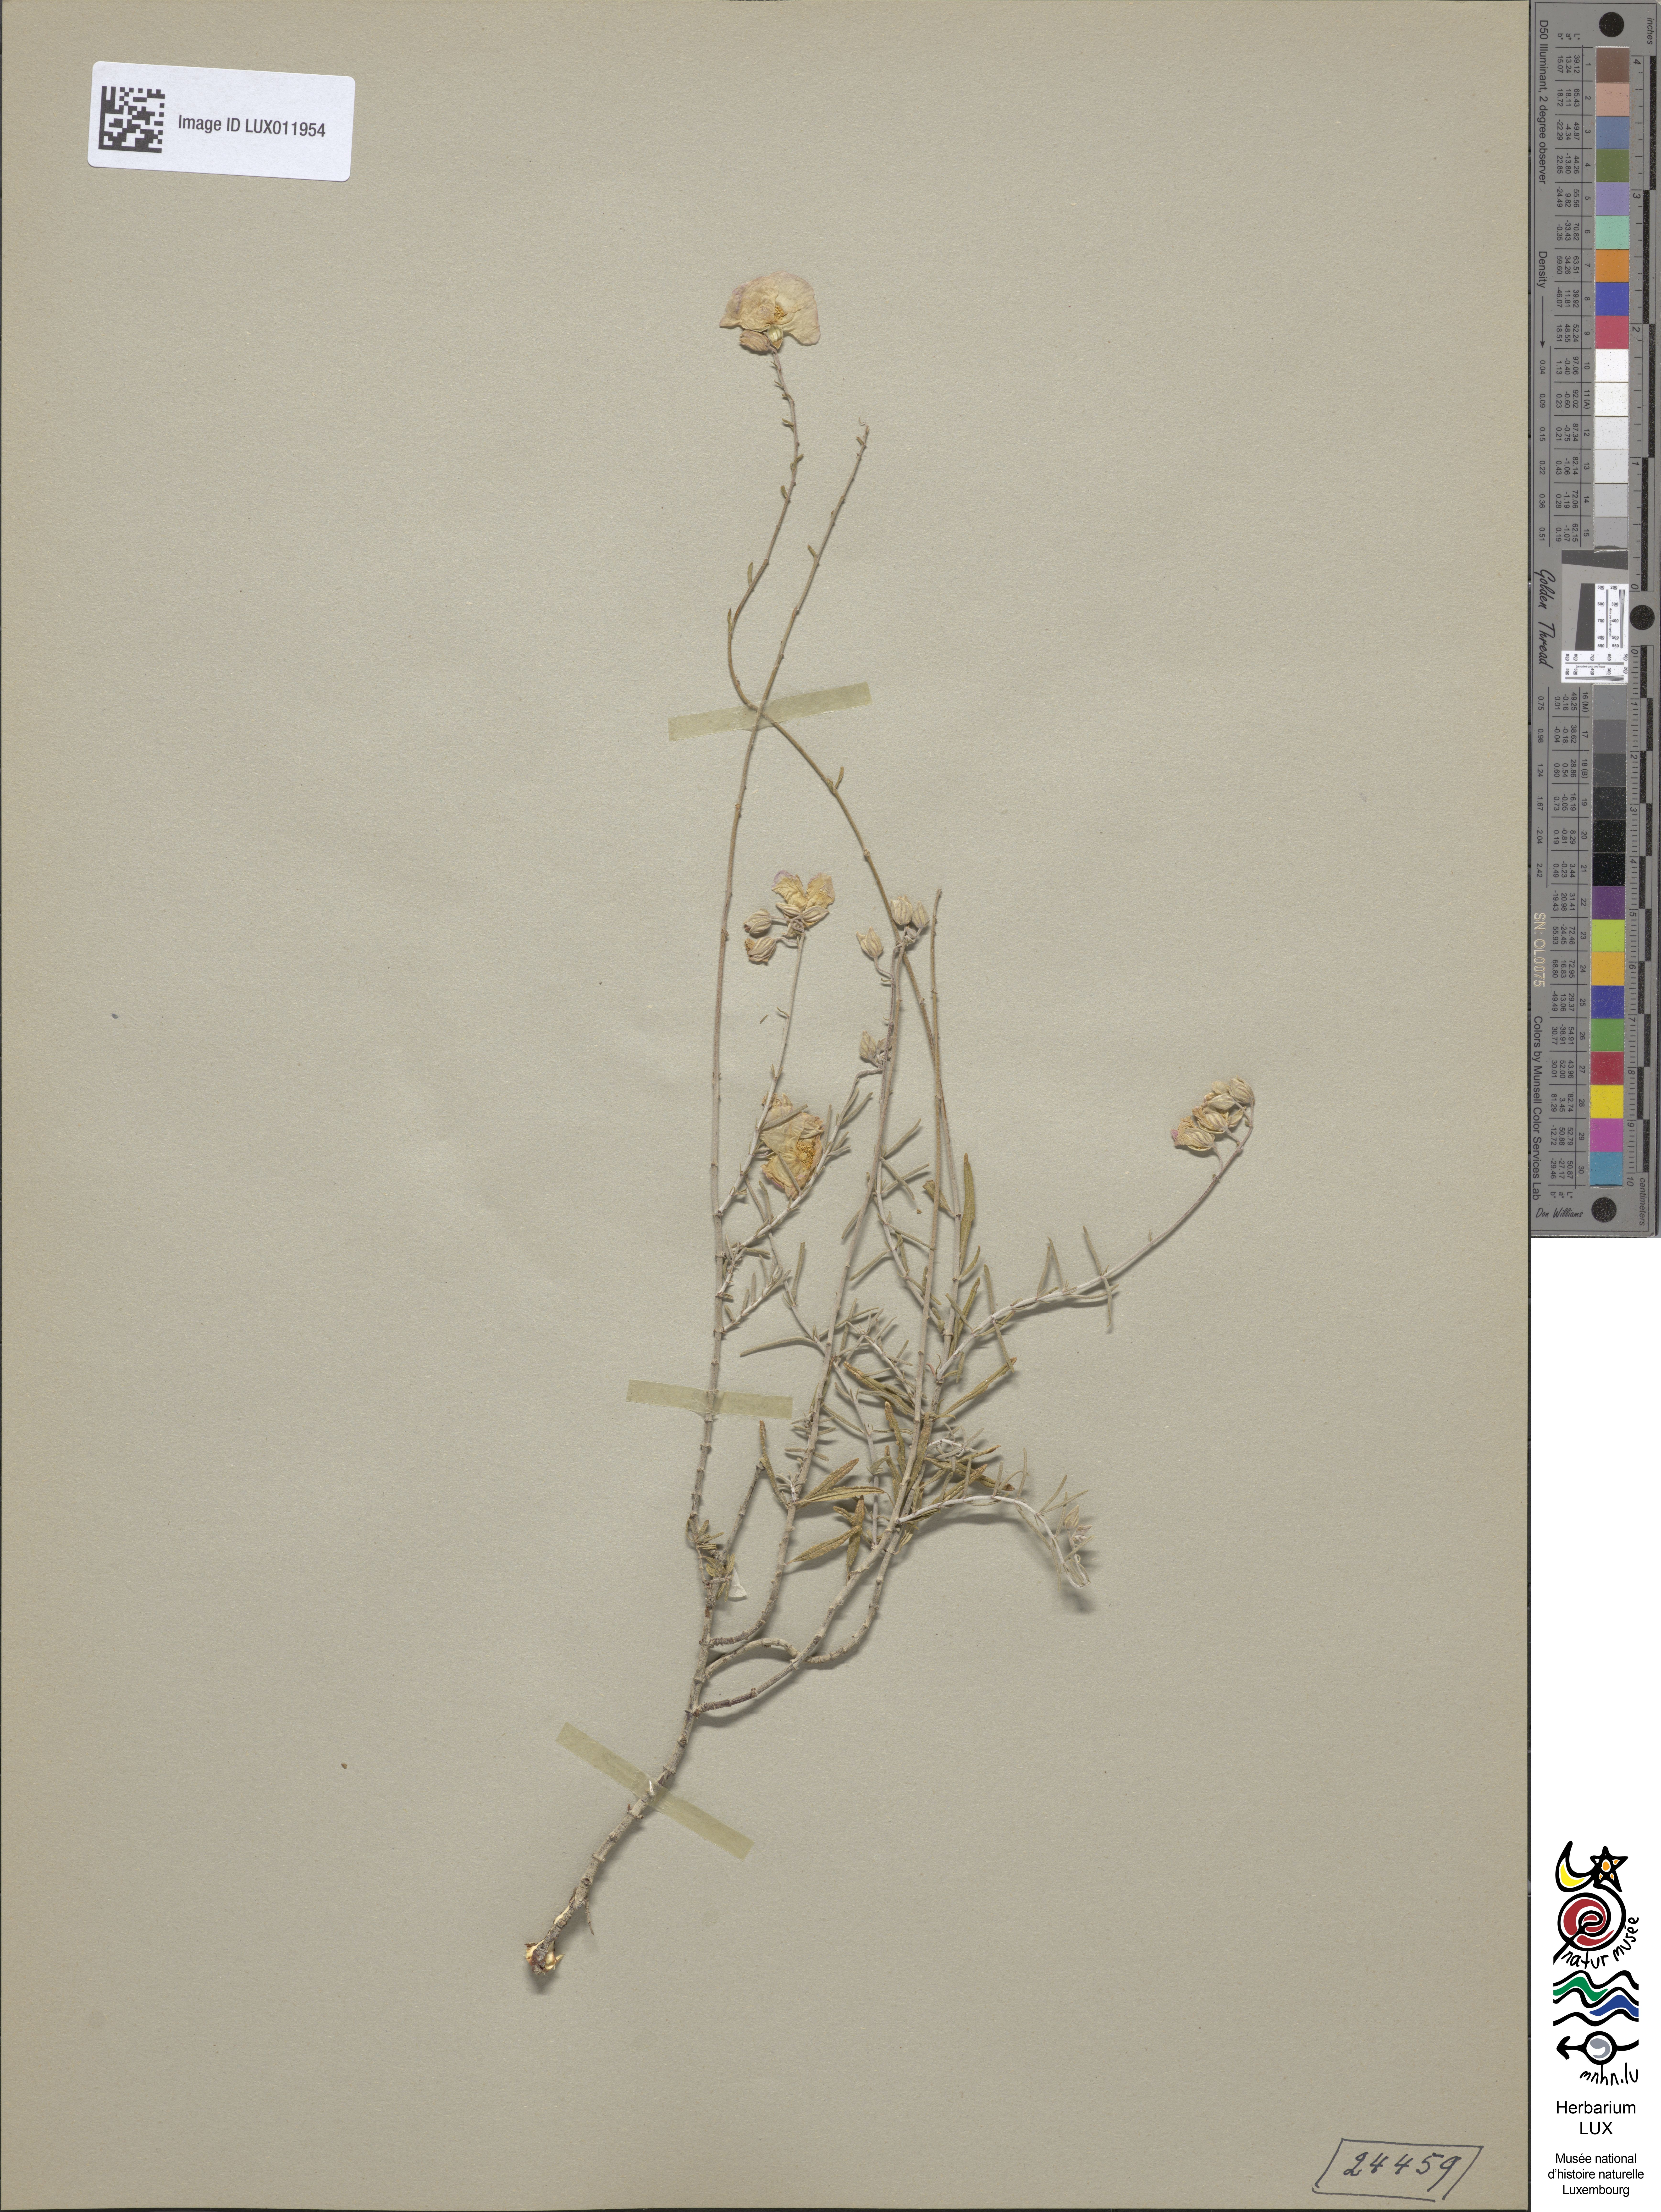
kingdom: Plantae
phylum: Tracheophyta
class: Magnoliopsida
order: Malvales
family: Cistaceae
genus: Helianthemum
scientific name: Helianthemum virgatum
